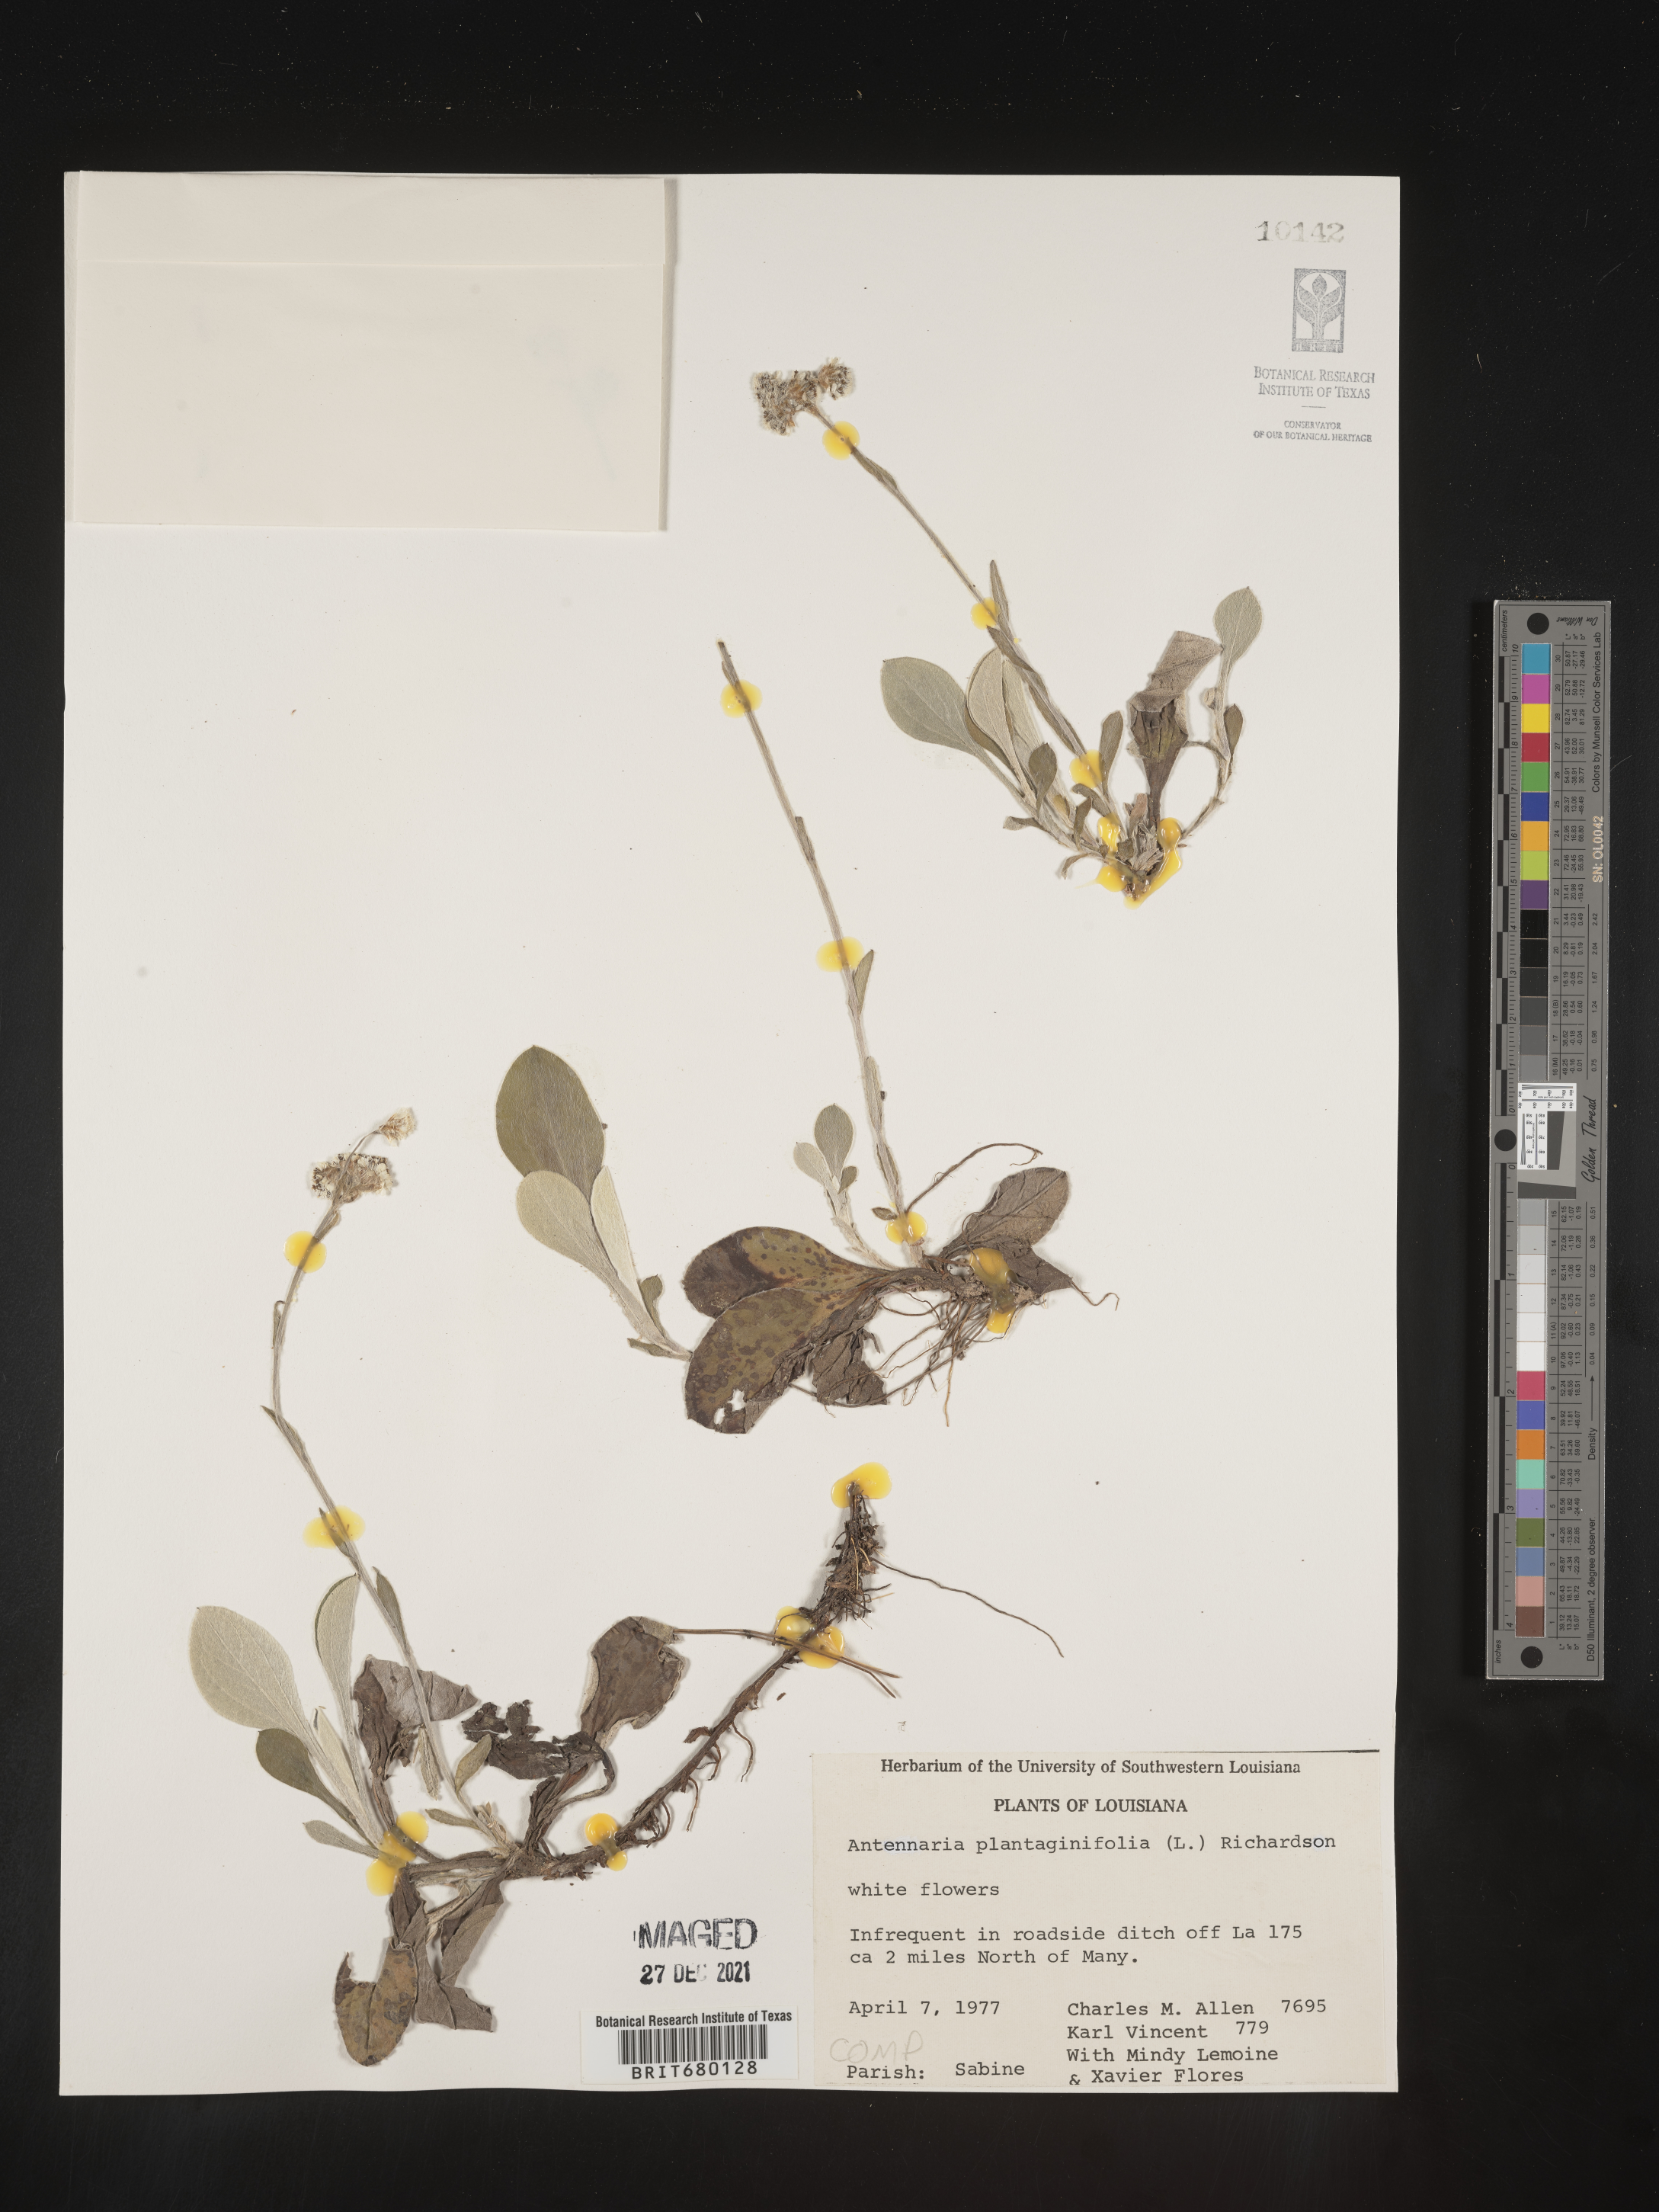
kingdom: Plantae
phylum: Tracheophyta
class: Magnoliopsida
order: Asterales
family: Asteraceae
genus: Antennaria
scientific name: Antennaria plantaginifolia
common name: Plantain-leaved pussytoes
